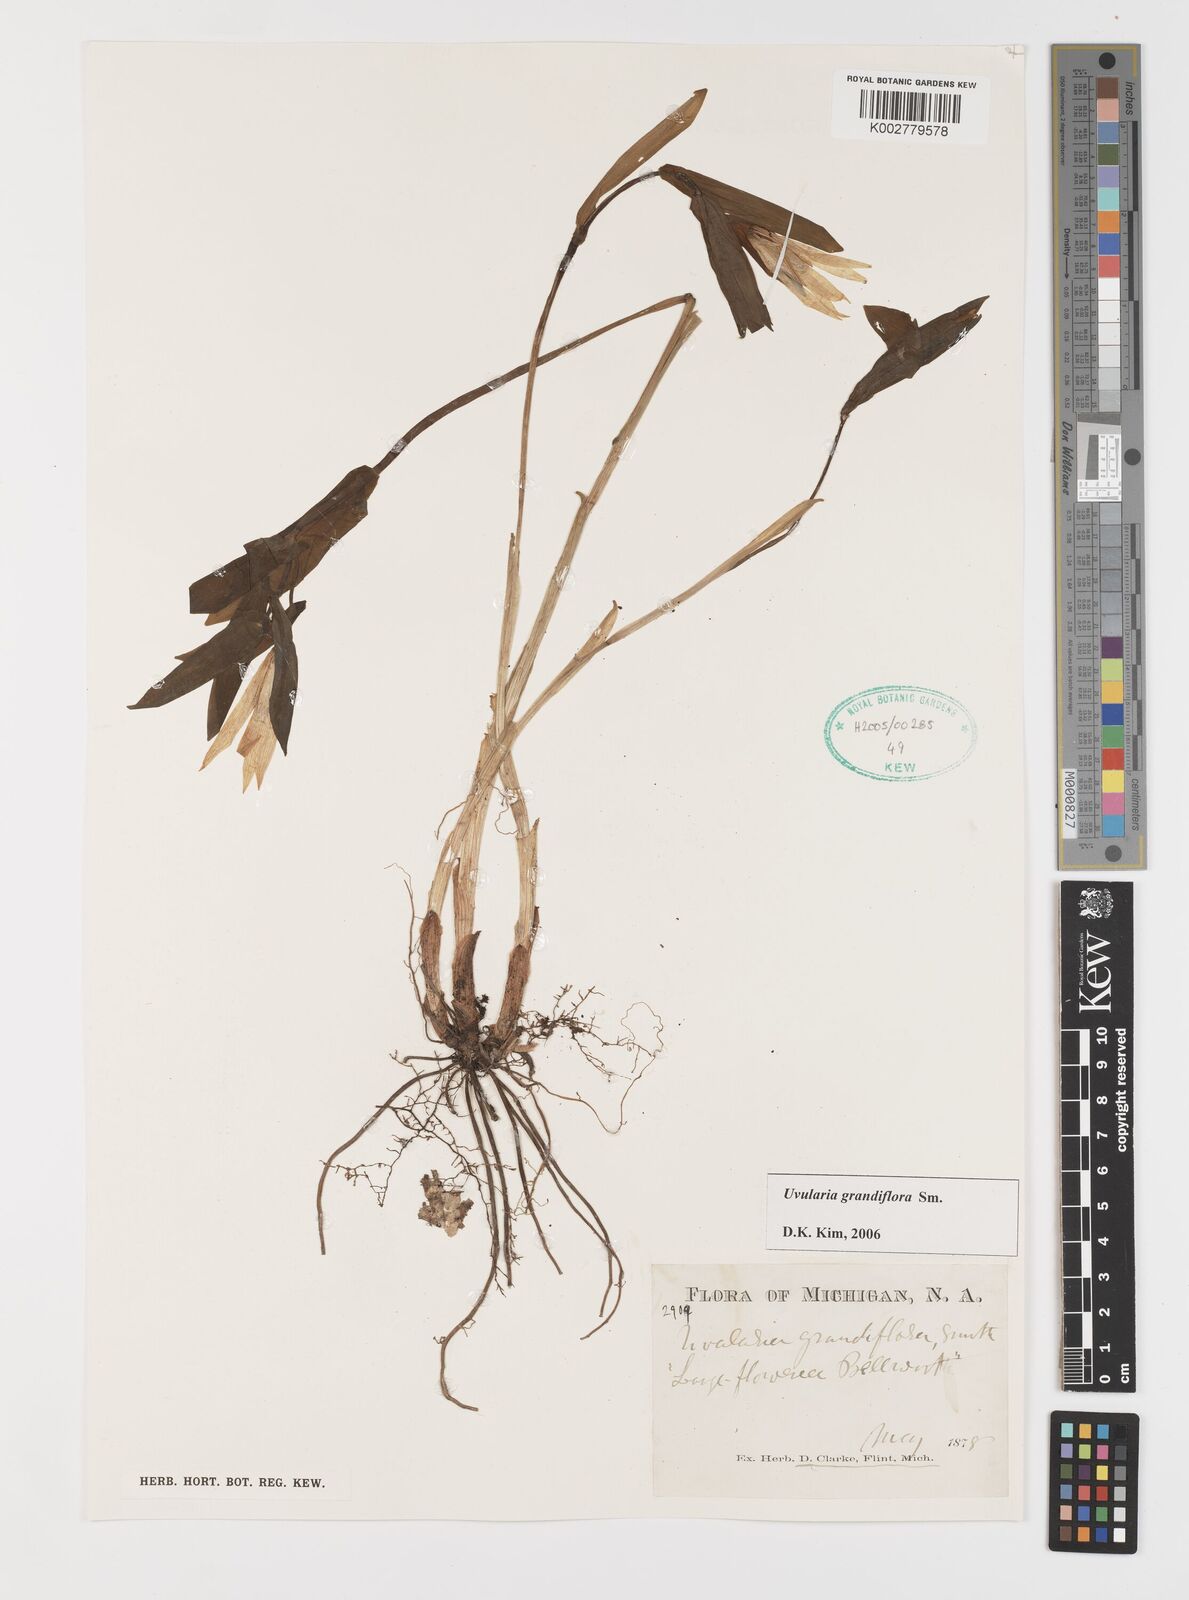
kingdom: Plantae
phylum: Tracheophyta
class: Liliopsida
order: Liliales
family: Colchicaceae
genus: Uvularia
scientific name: Uvularia grandiflora
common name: Bellwort
